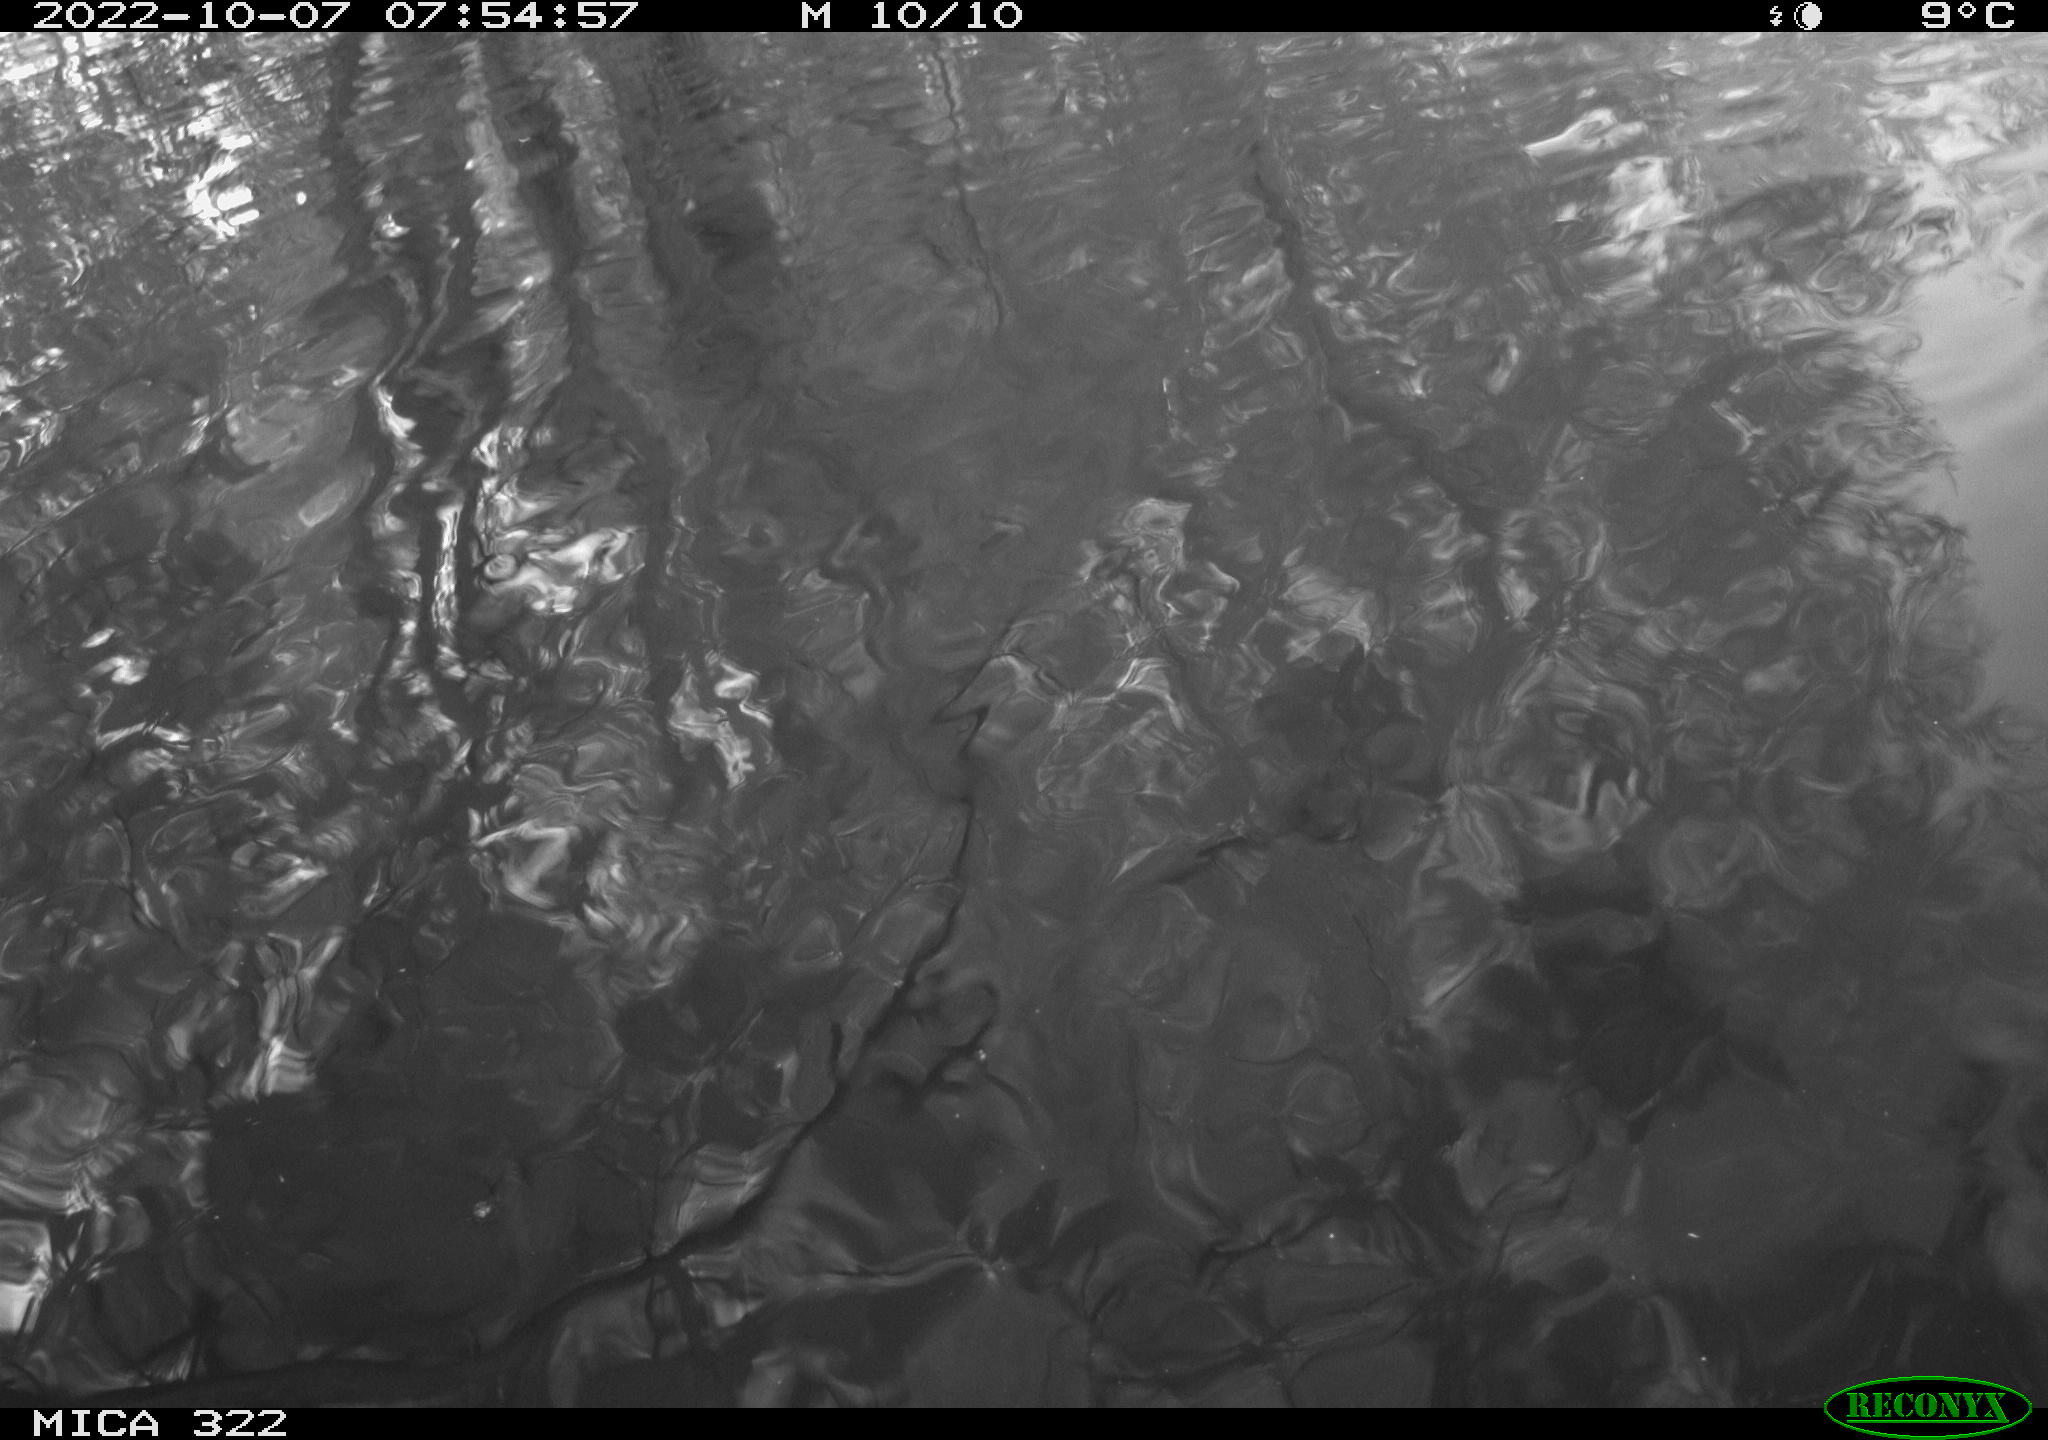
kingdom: Animalia
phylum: Chordata
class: Aves
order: Anseriformes
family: Anatidae
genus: Anas
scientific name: Anas
